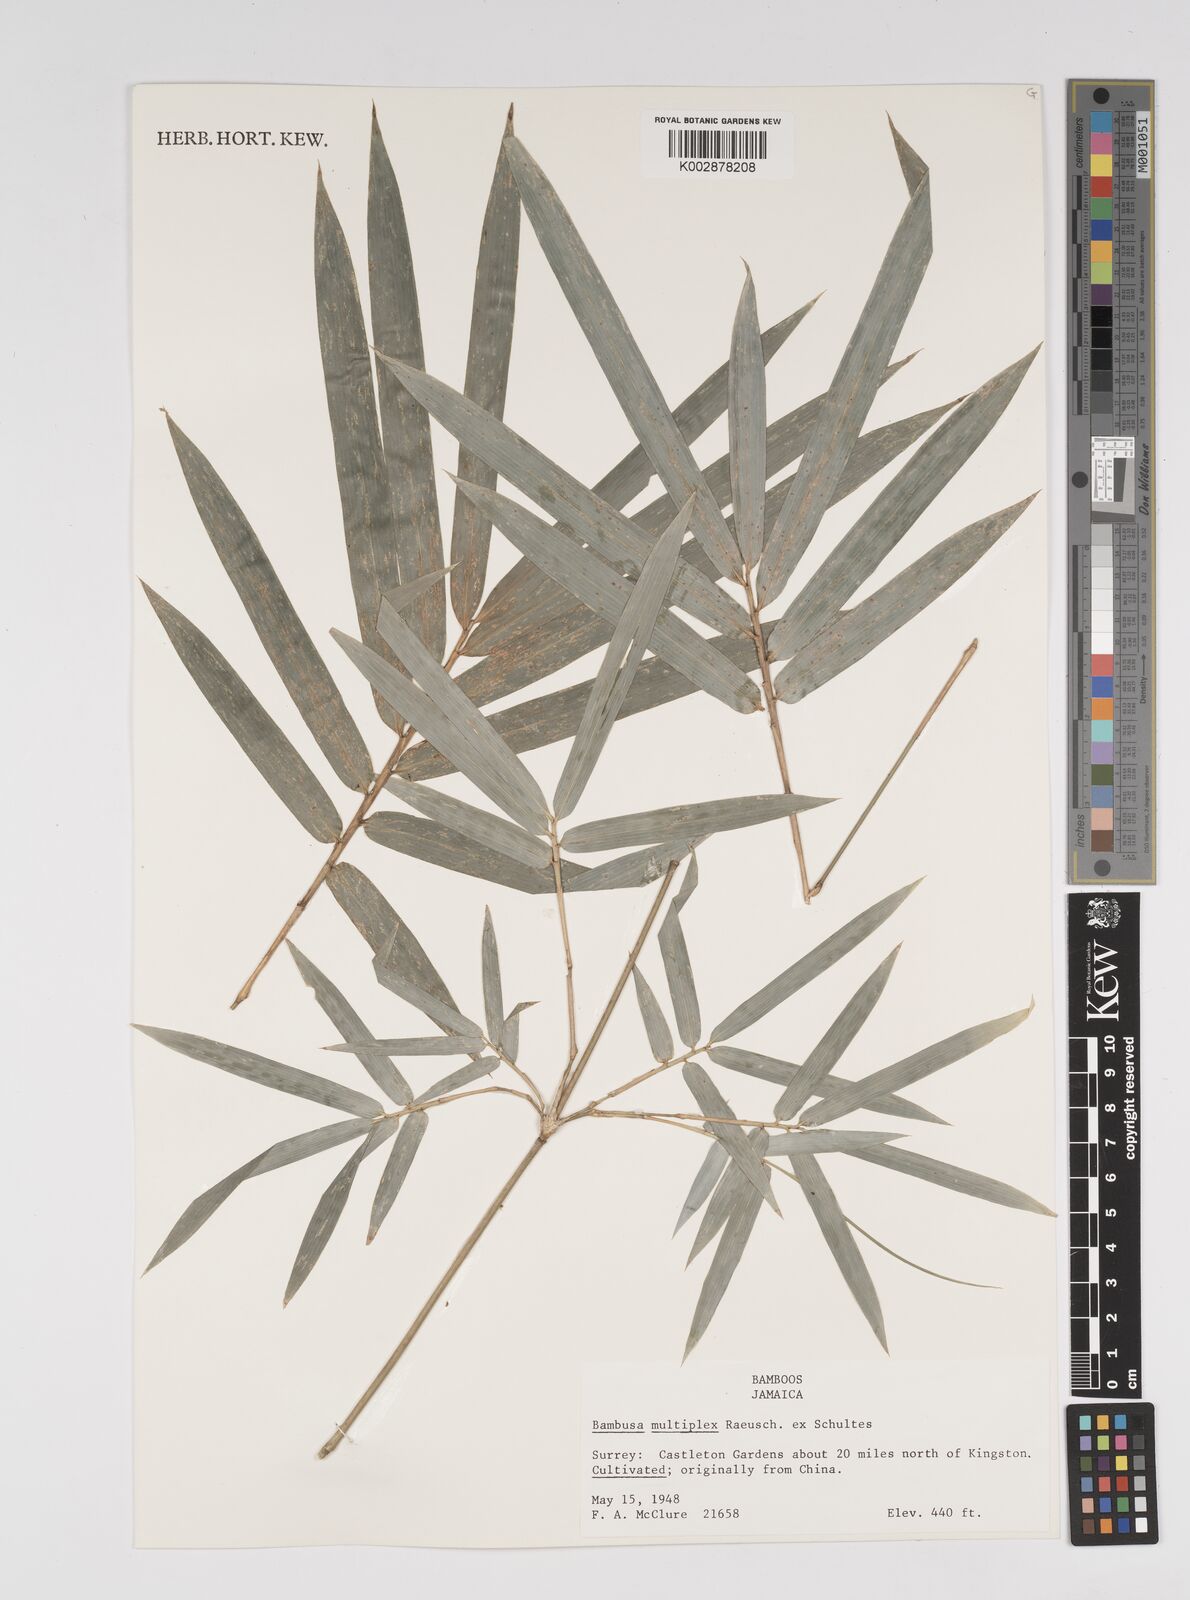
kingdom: Plantae
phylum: Tracheophyta
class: Liliopsida
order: Poales
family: Poaceae
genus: Bambusa
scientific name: Bambusa multiplex
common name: Hedge bamboo
